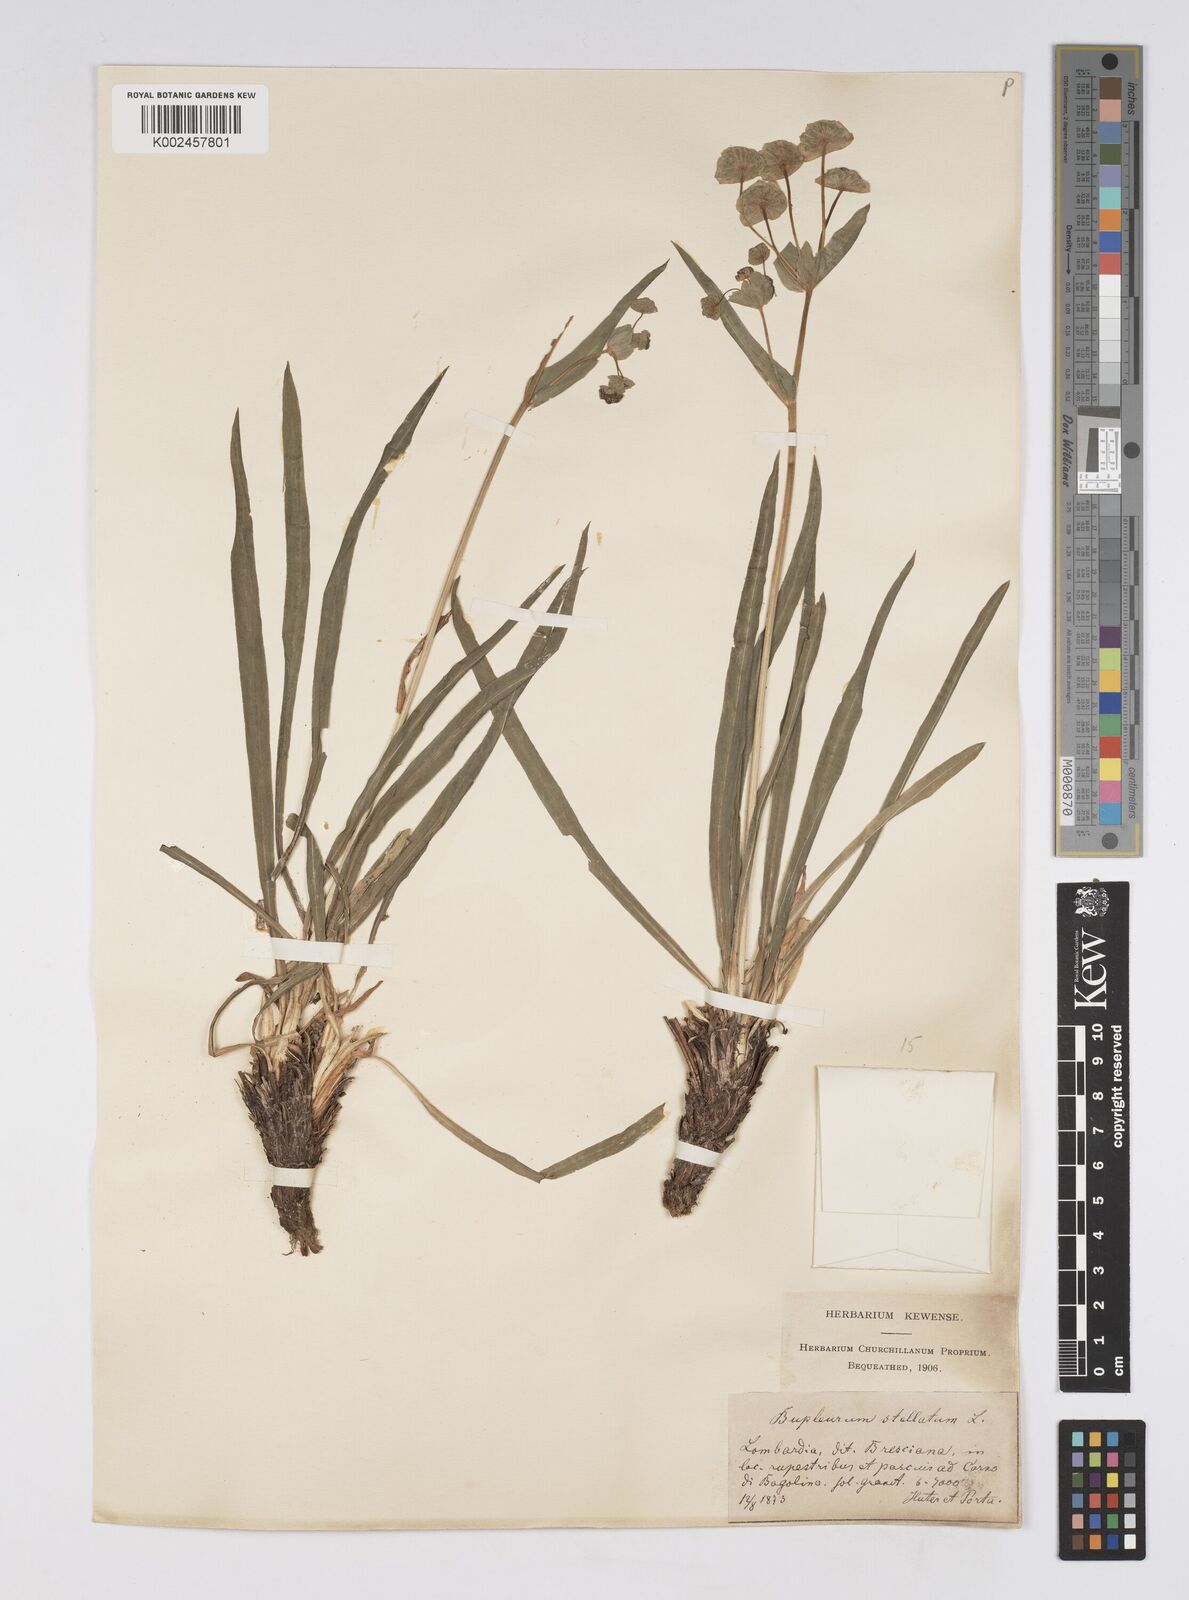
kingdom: Plantae
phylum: Tracheophyta
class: Magnoliopsida
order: Apiales
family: Apiaceae
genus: Bupleurum
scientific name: Bupleurum stellatum
